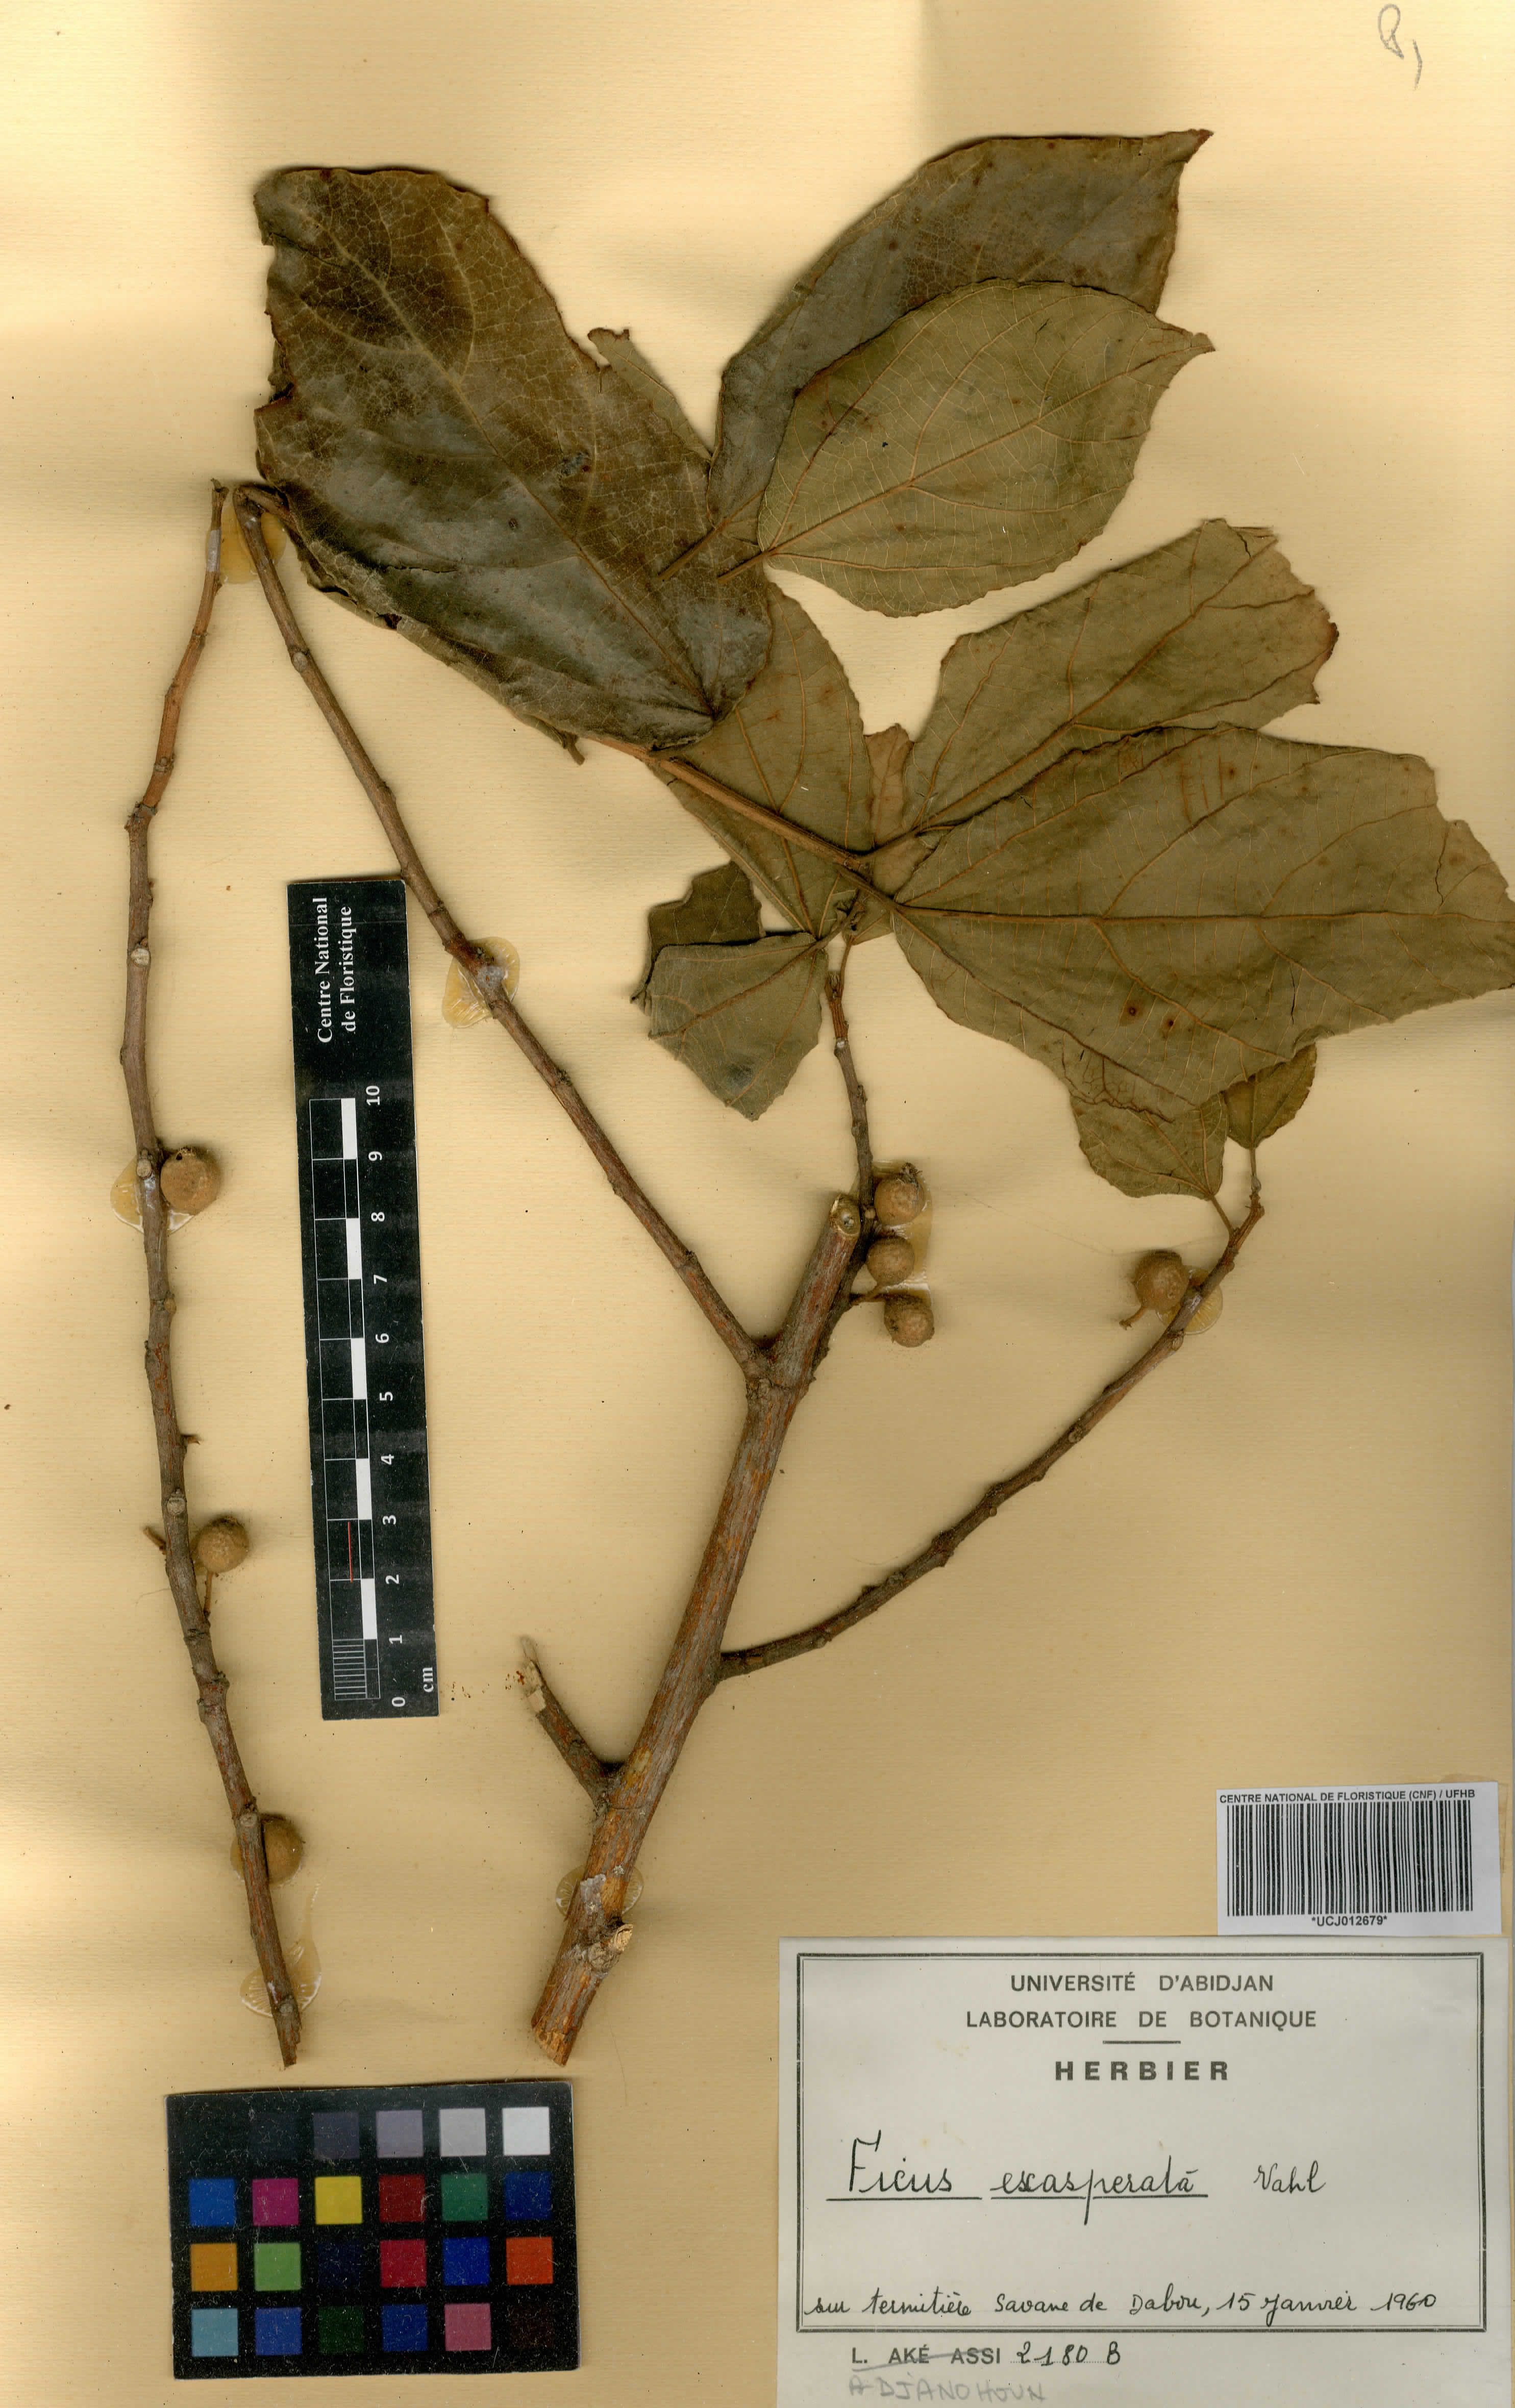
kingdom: Plantae
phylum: Tracheophyta
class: Magnoliopsida
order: Rosales
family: Moraceae
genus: Ficus
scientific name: Ficus ardisioides
